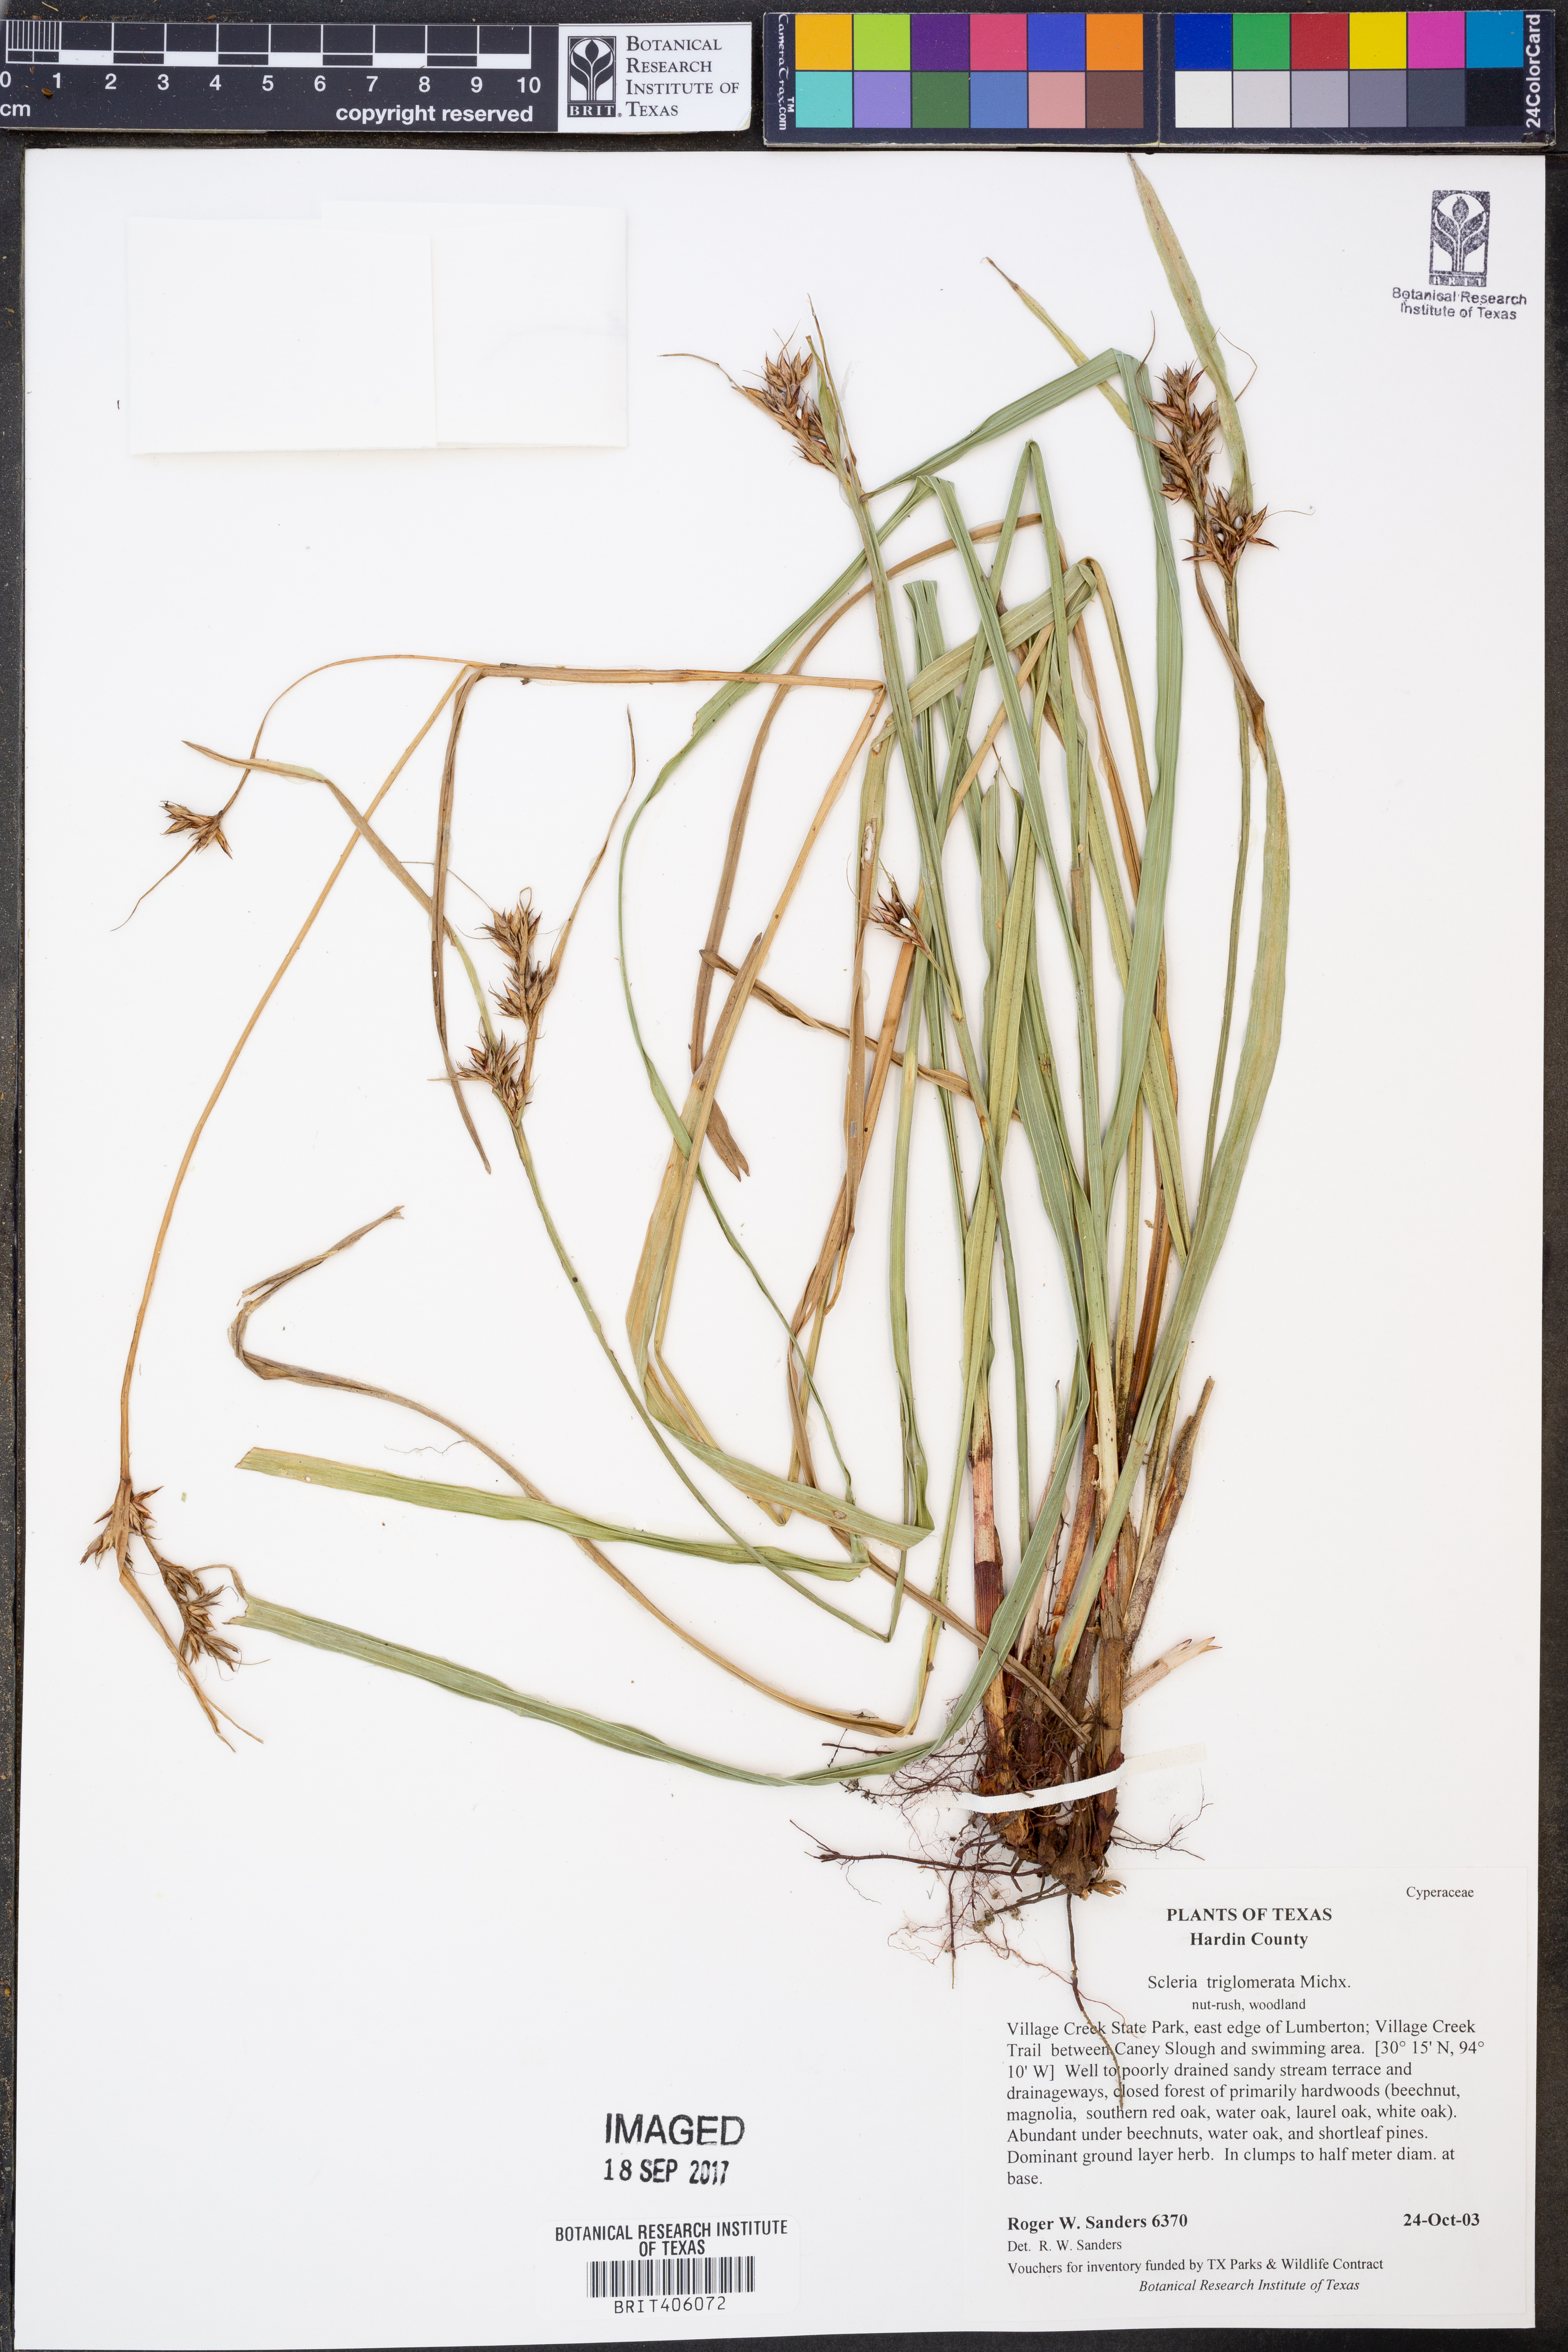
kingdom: Plantae
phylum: Tracheophyta
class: Liliopsida
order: Poales
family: Cyperaceae
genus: Scleria
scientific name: Scleria triglomerata
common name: Whip nutrush
